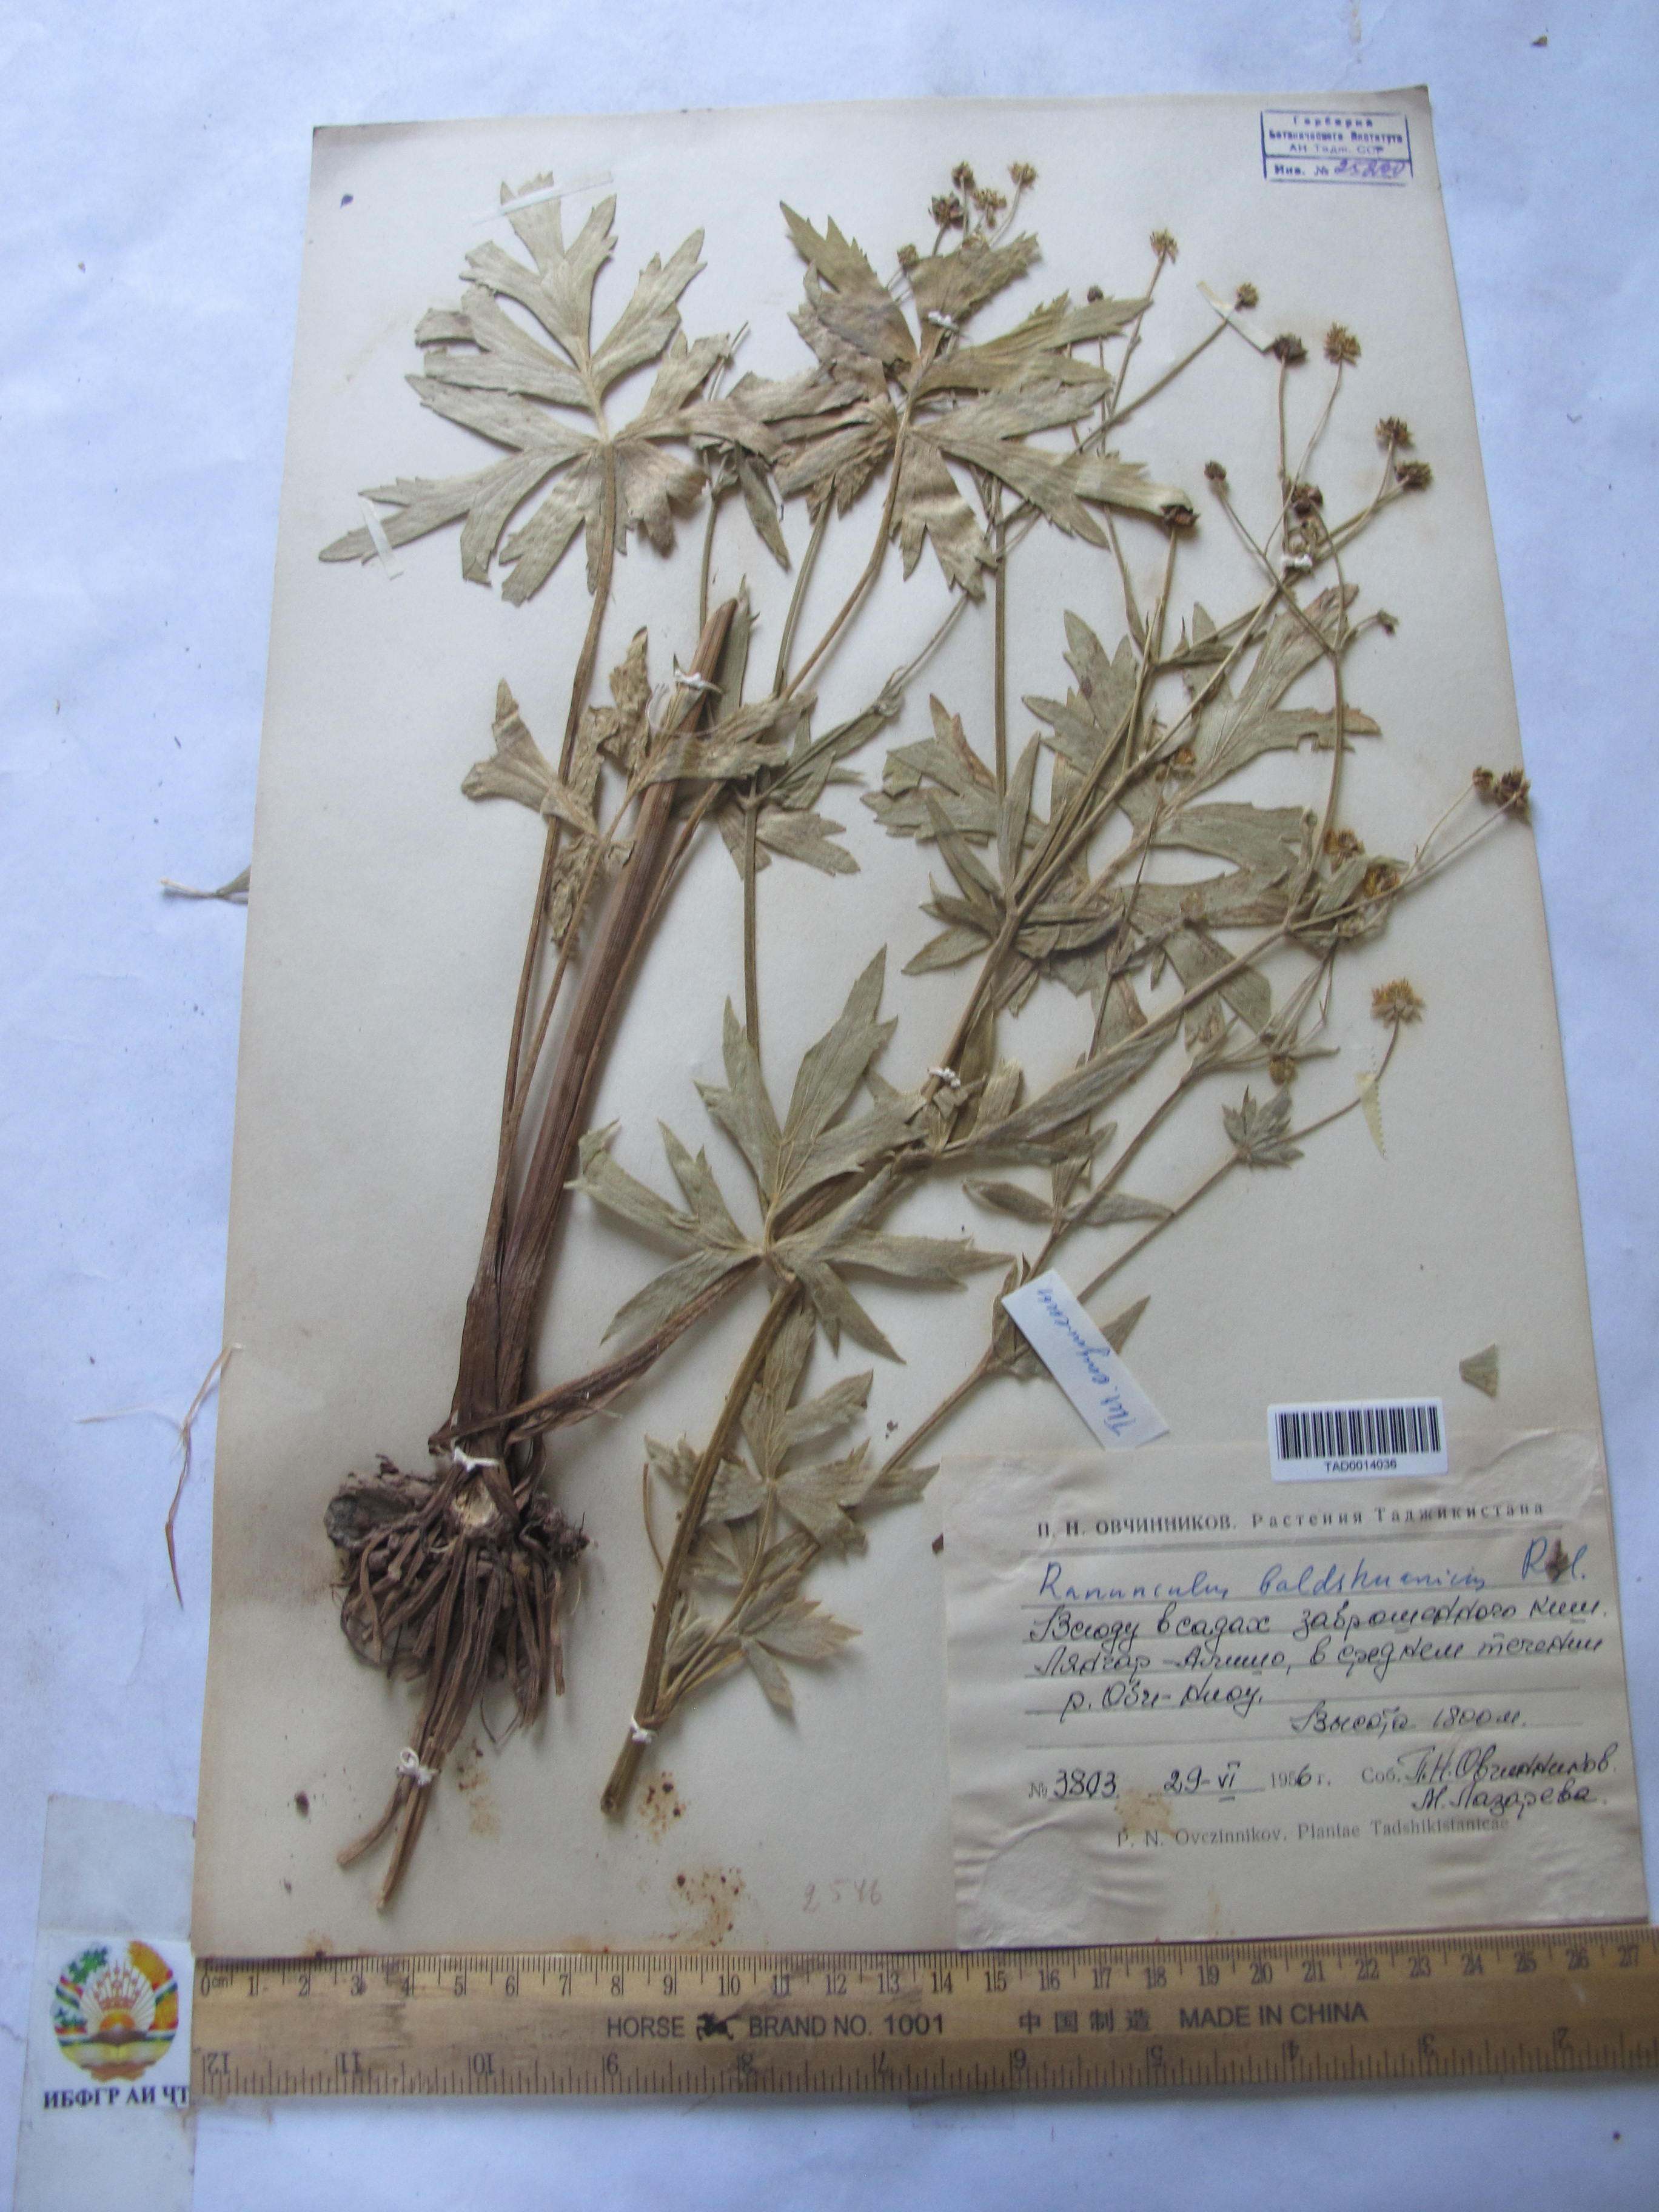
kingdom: Plantae
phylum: Tracheophyta
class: Magnoliopsida
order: Ranunculales
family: Ranunculaceae
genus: Ranunculus
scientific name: Ranunculus baldshuanicus
